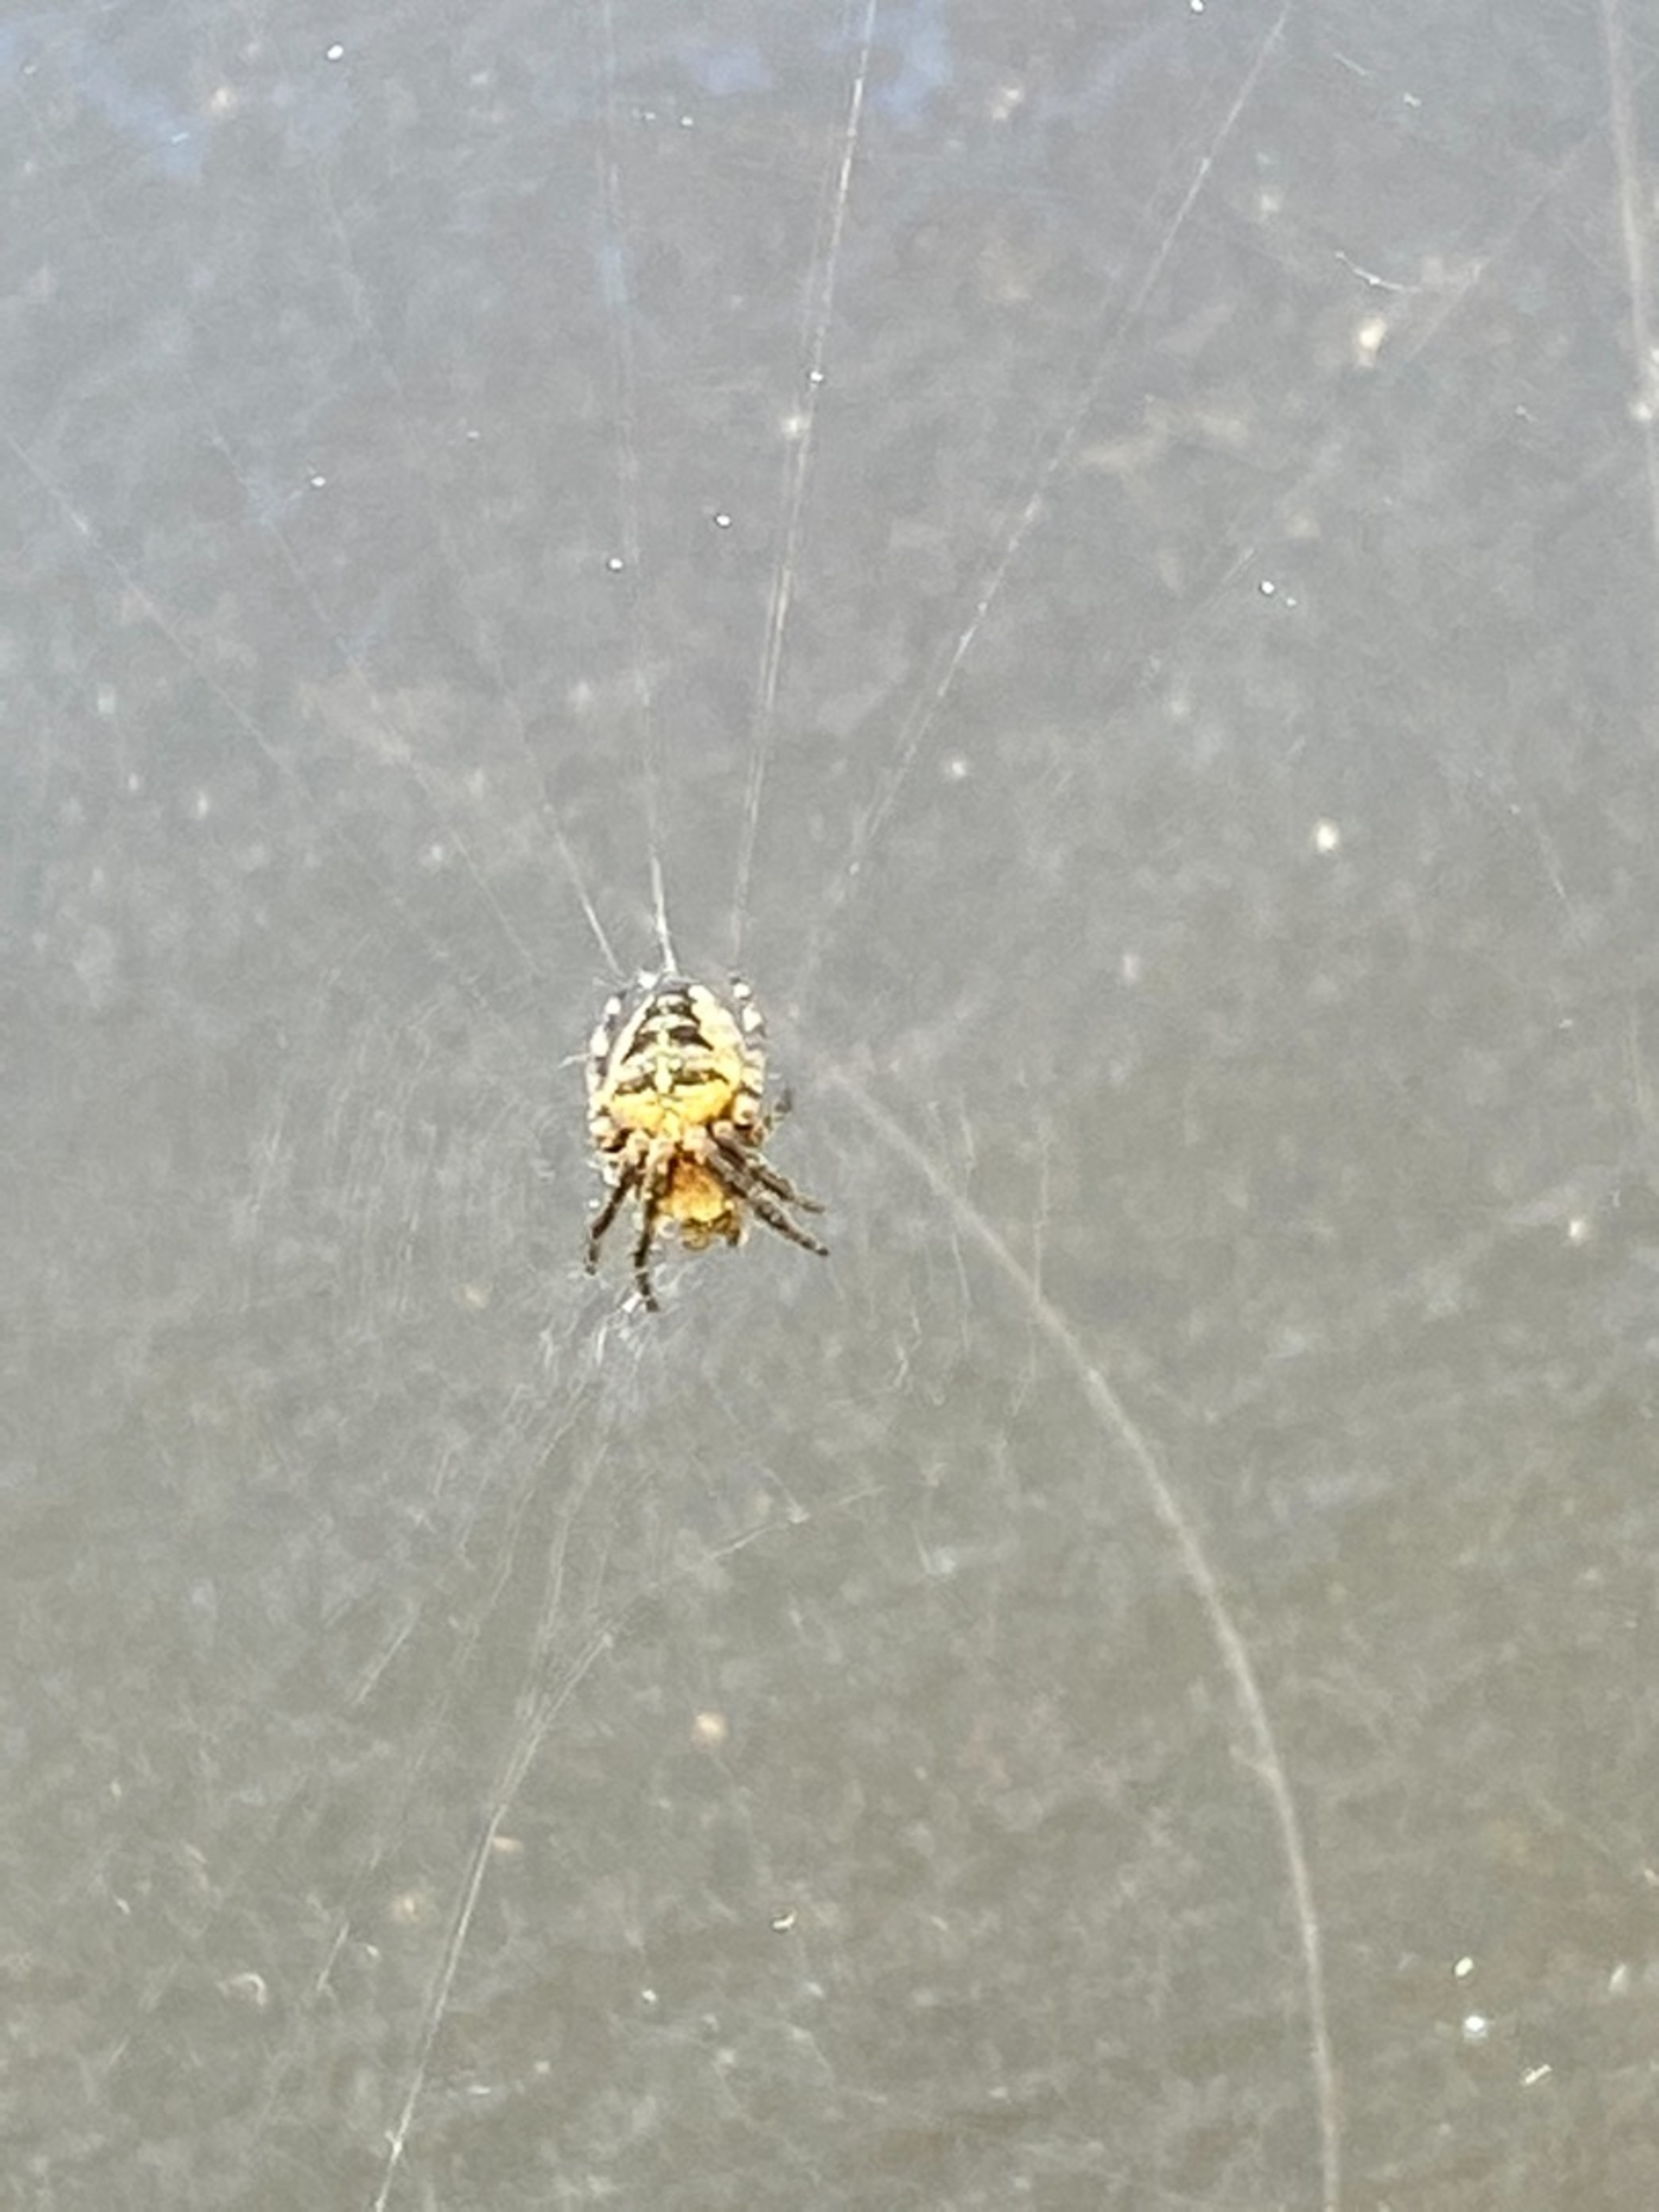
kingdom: Animalia
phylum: Arthropoda
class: Arachnida
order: Araneae
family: Araneidae
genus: Araneus
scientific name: Araneus diadematus
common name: Korsedderkop
